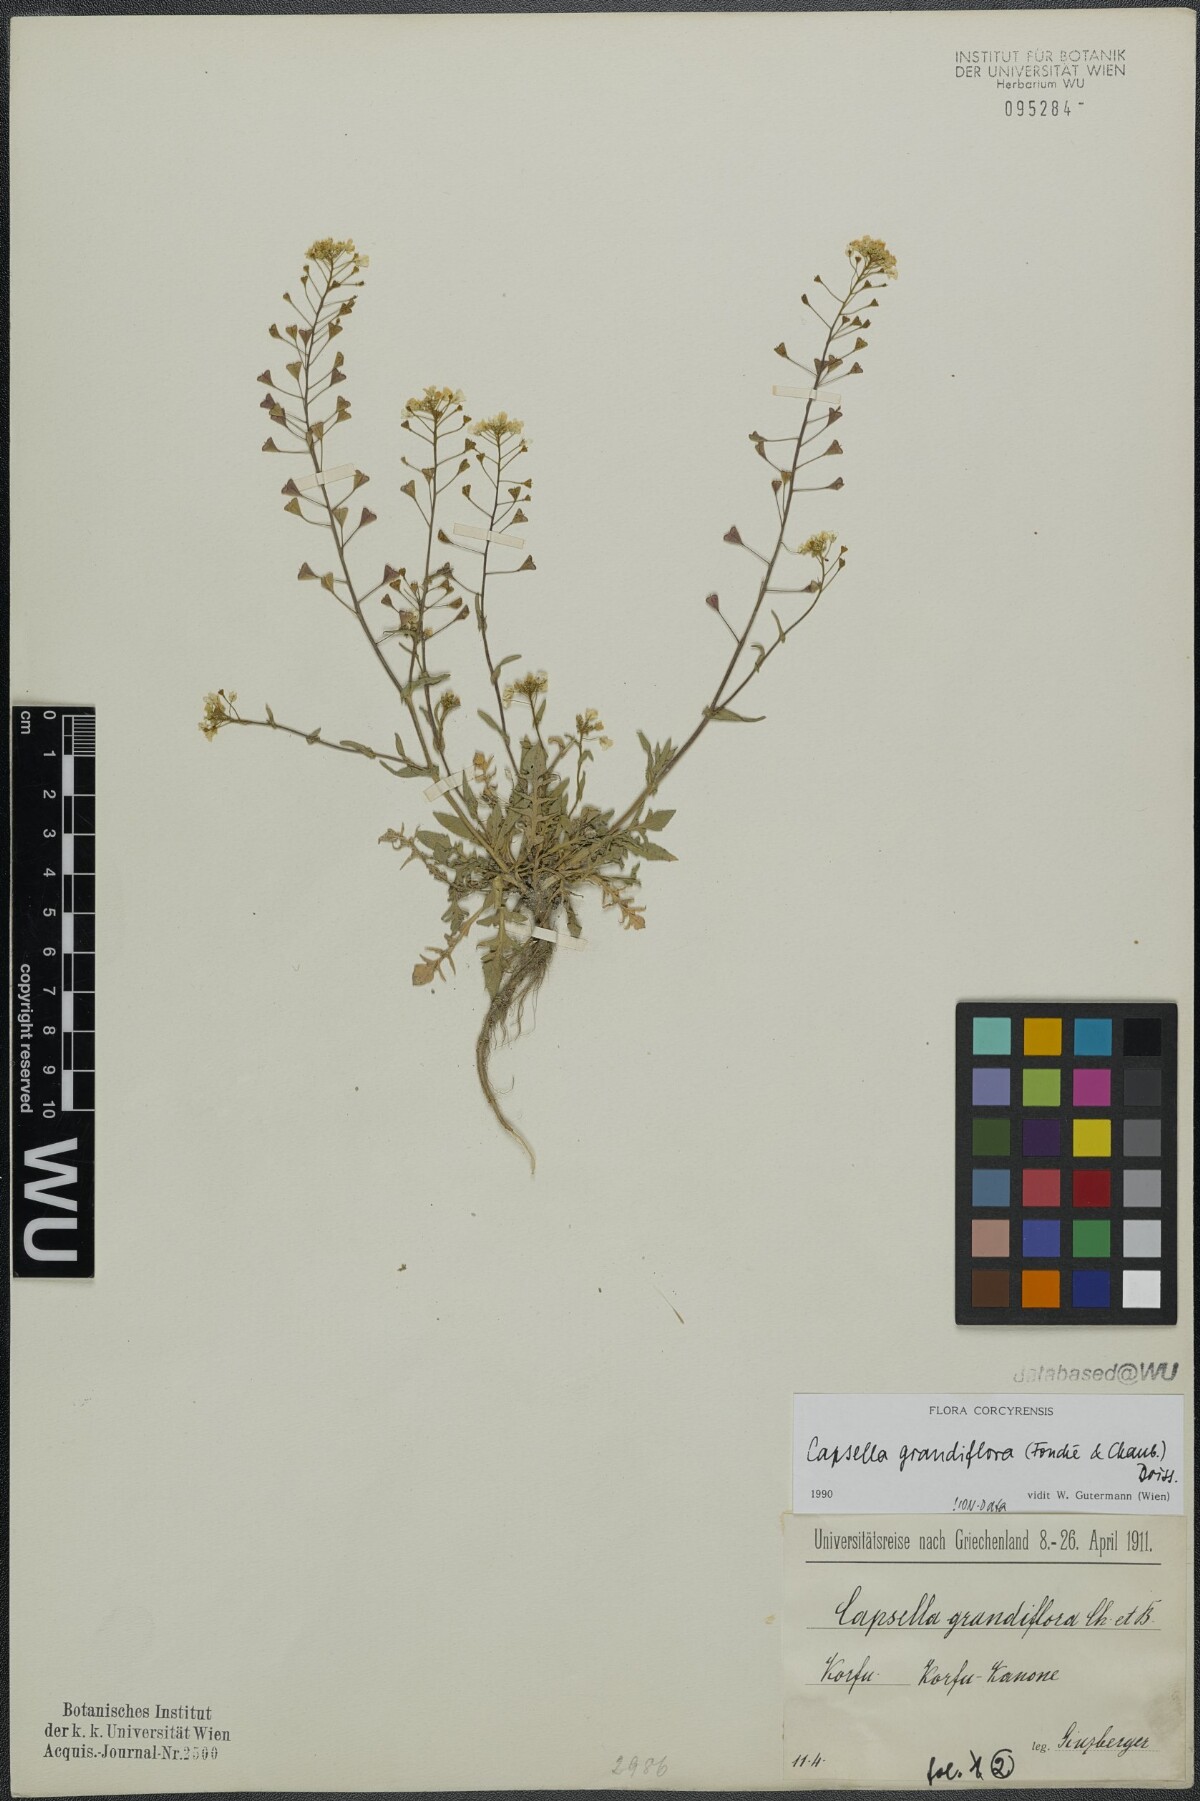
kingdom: Plantae
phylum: Tracheophyta
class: Magnoliopsida
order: Brassicales
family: Brassicaceae
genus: Capsella
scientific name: Capsella grandiflora
